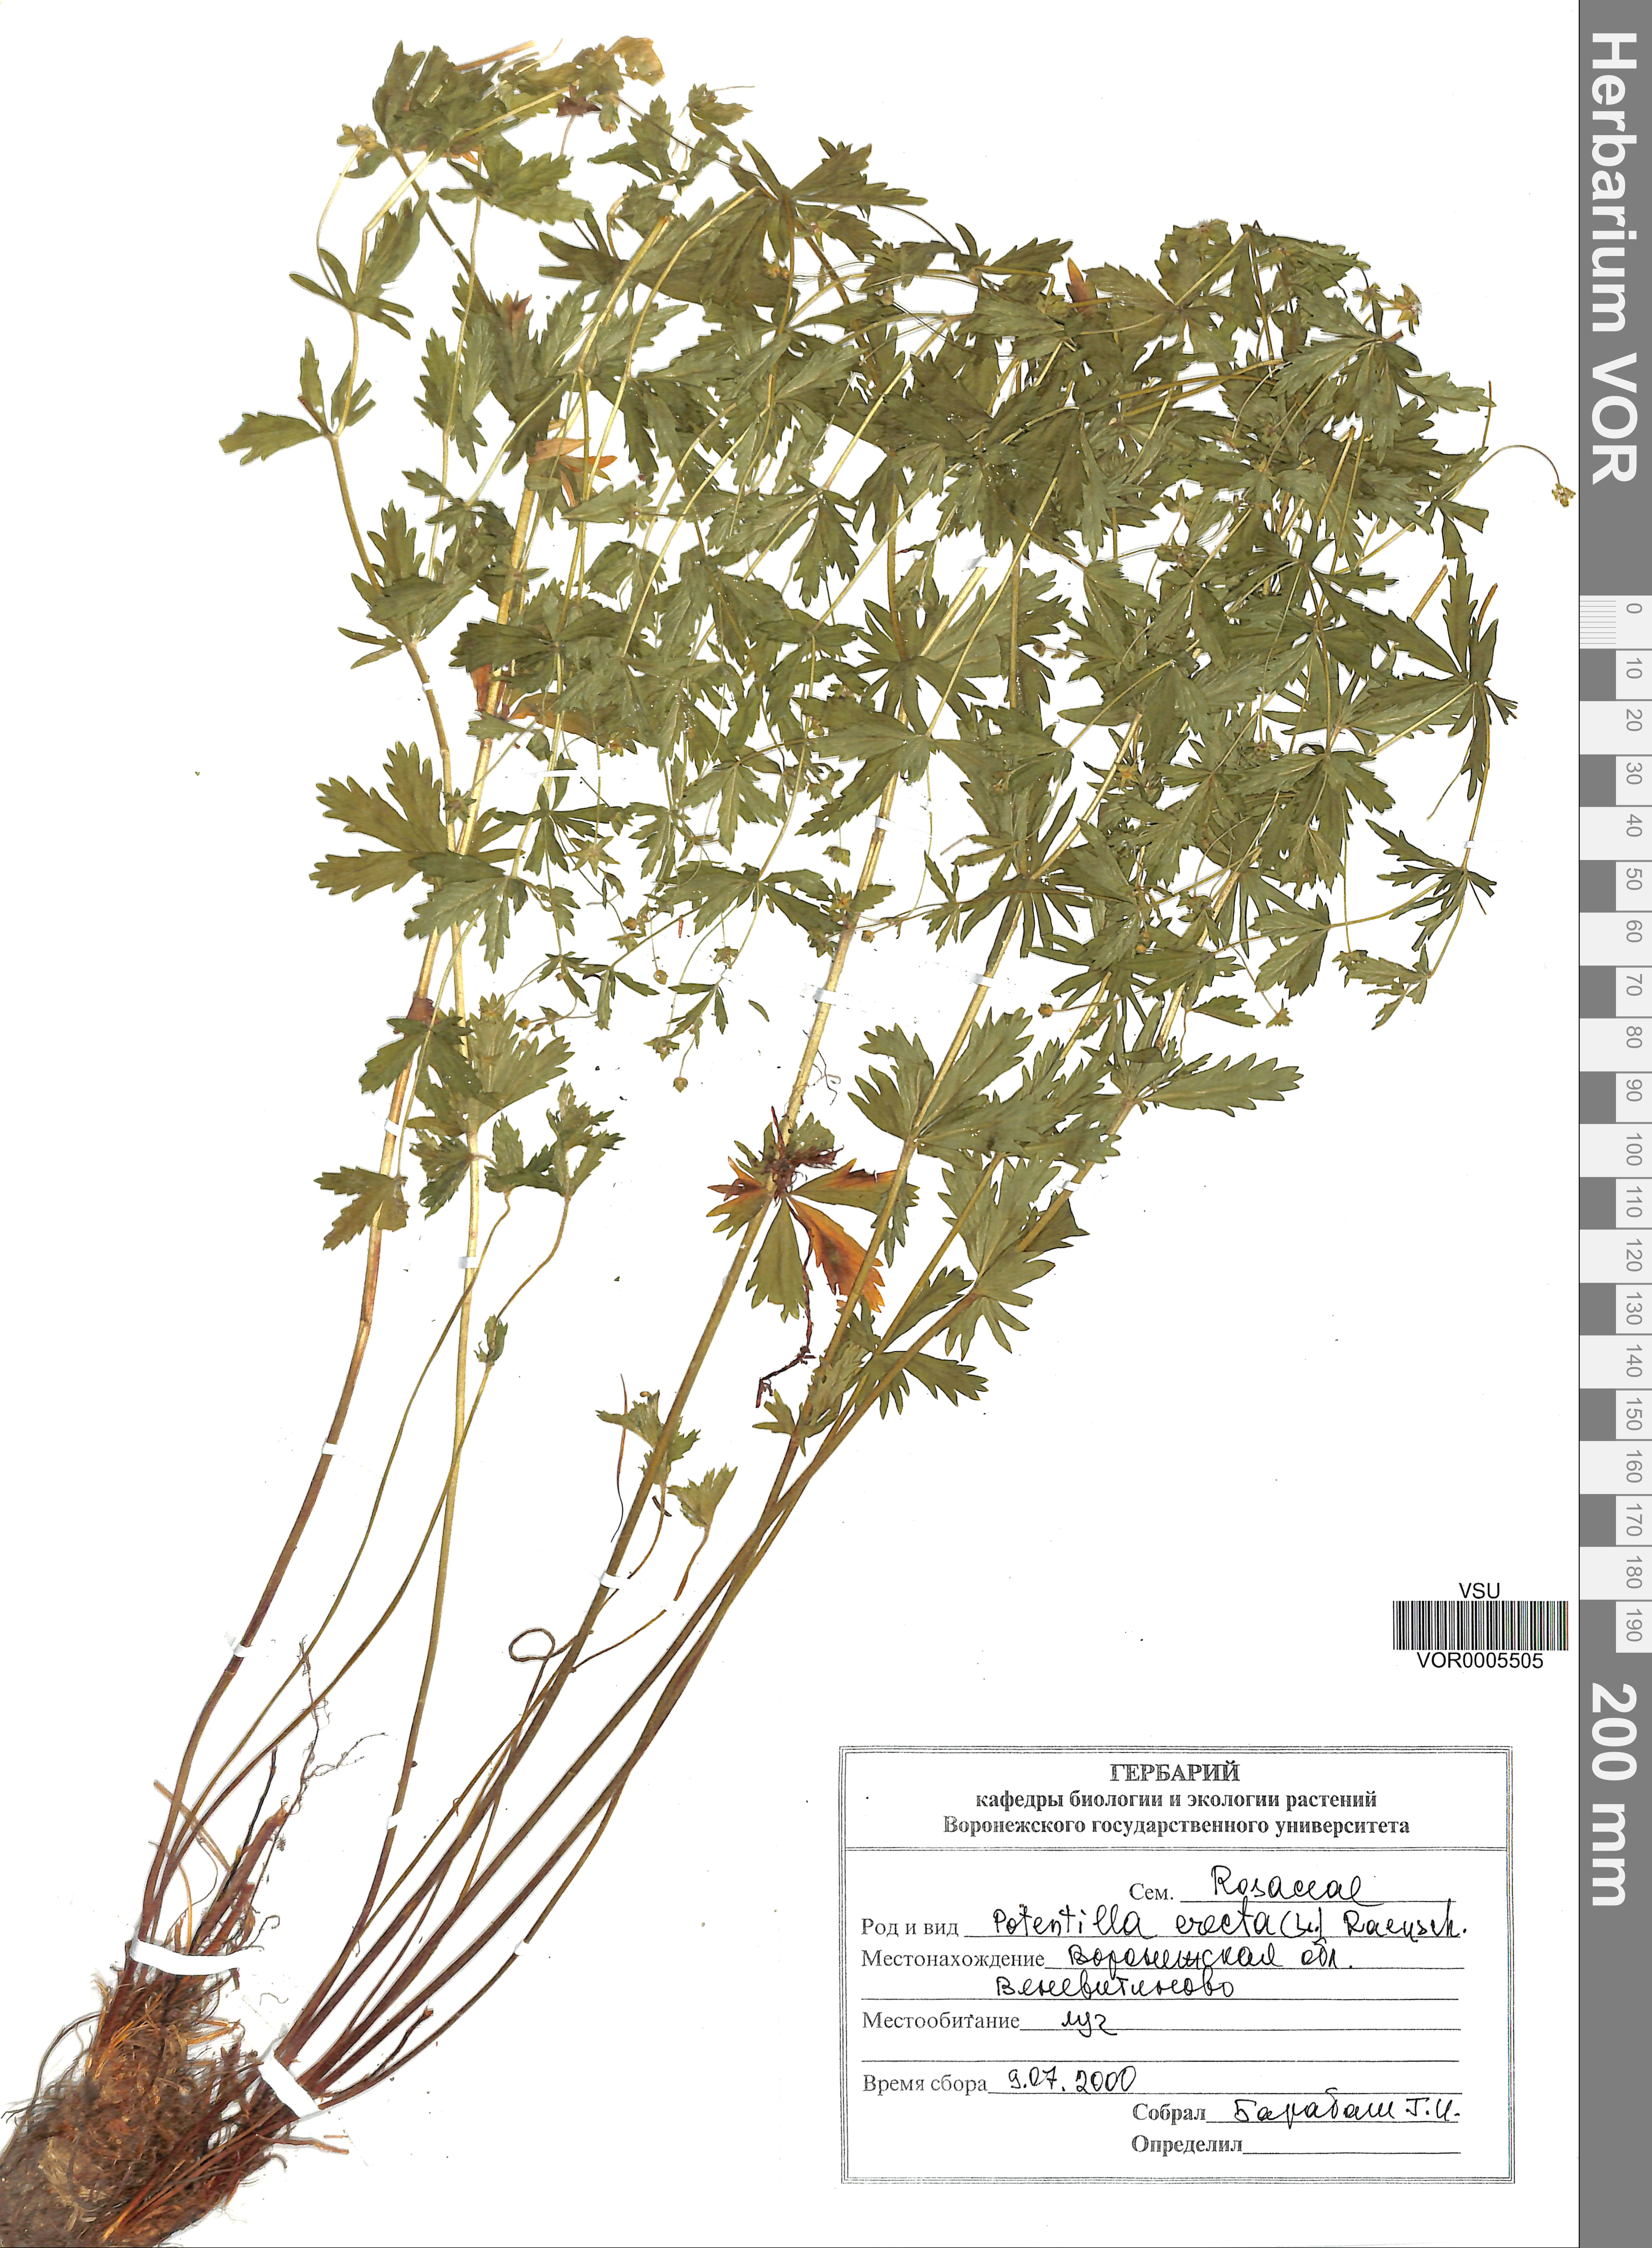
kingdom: Plantae
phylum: Tracheophyta
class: Magnoliopsida
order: Rosales
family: Rosaceae
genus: Potentilla
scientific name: Potentilla erecta
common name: Tormentil
